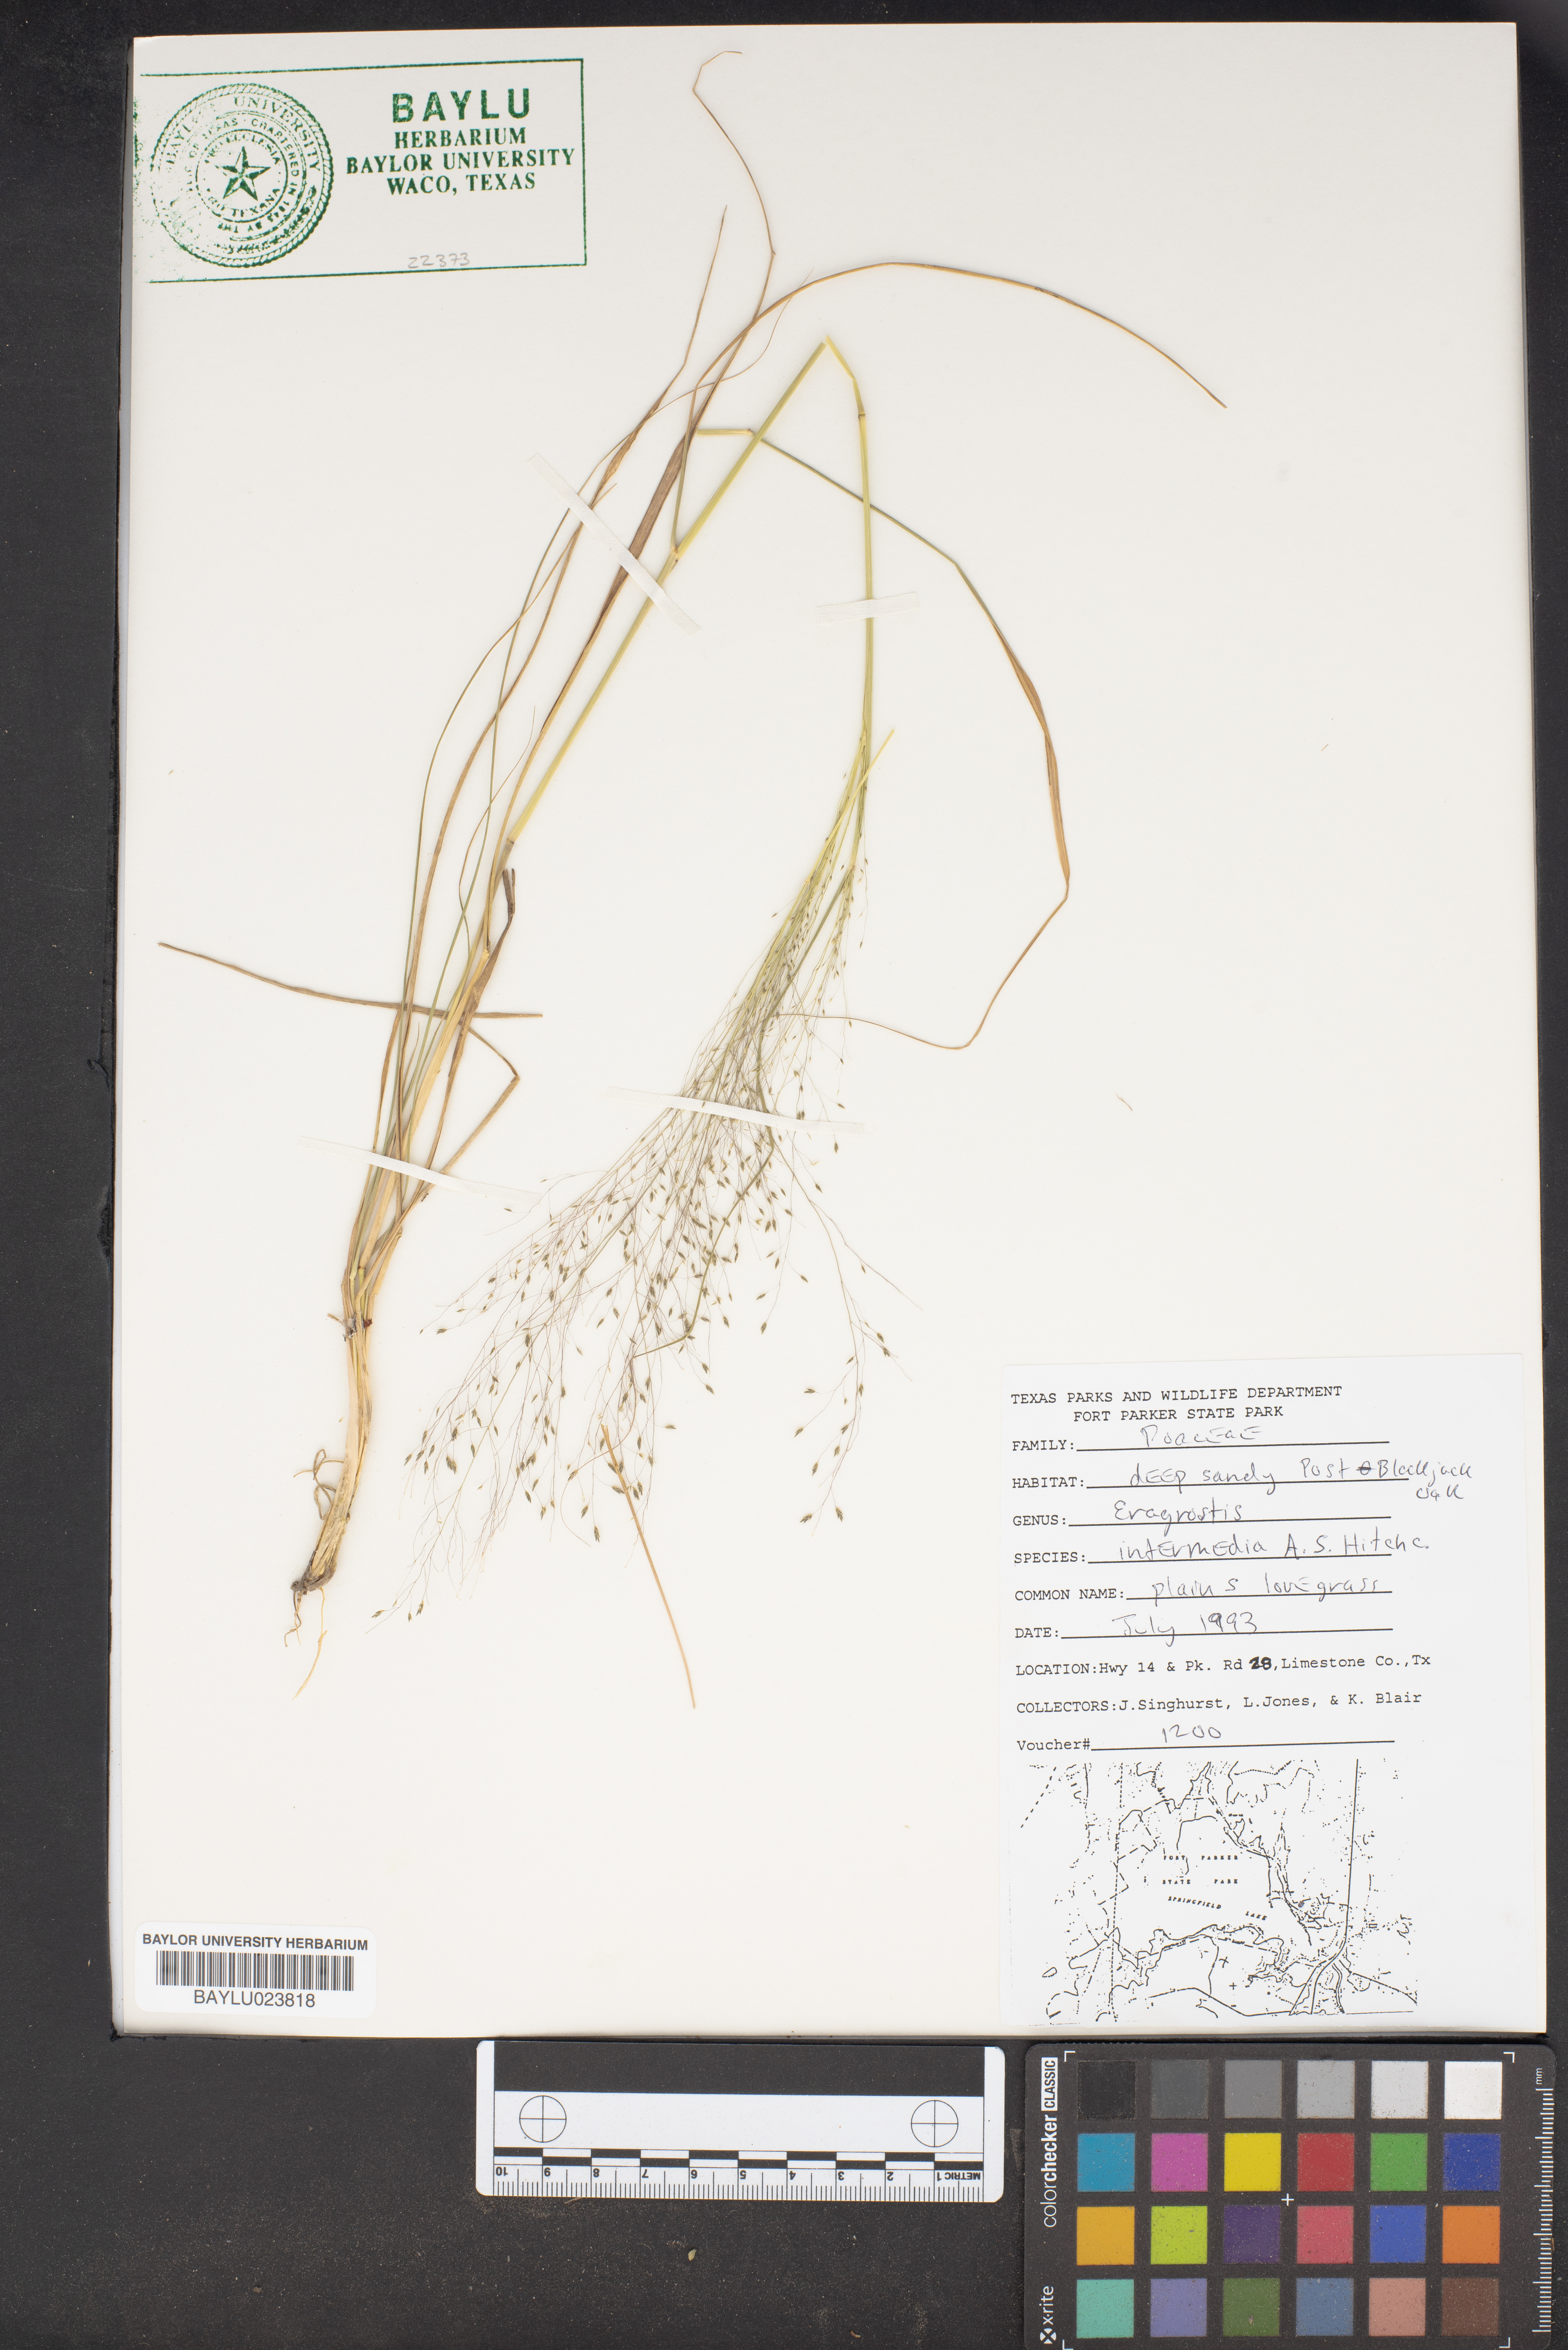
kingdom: Plantae
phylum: Tracheophyta
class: Liliopsida
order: Poales
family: Poaceae
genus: Eragrostis
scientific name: Eragrostis intermedia
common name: Plains love grass
